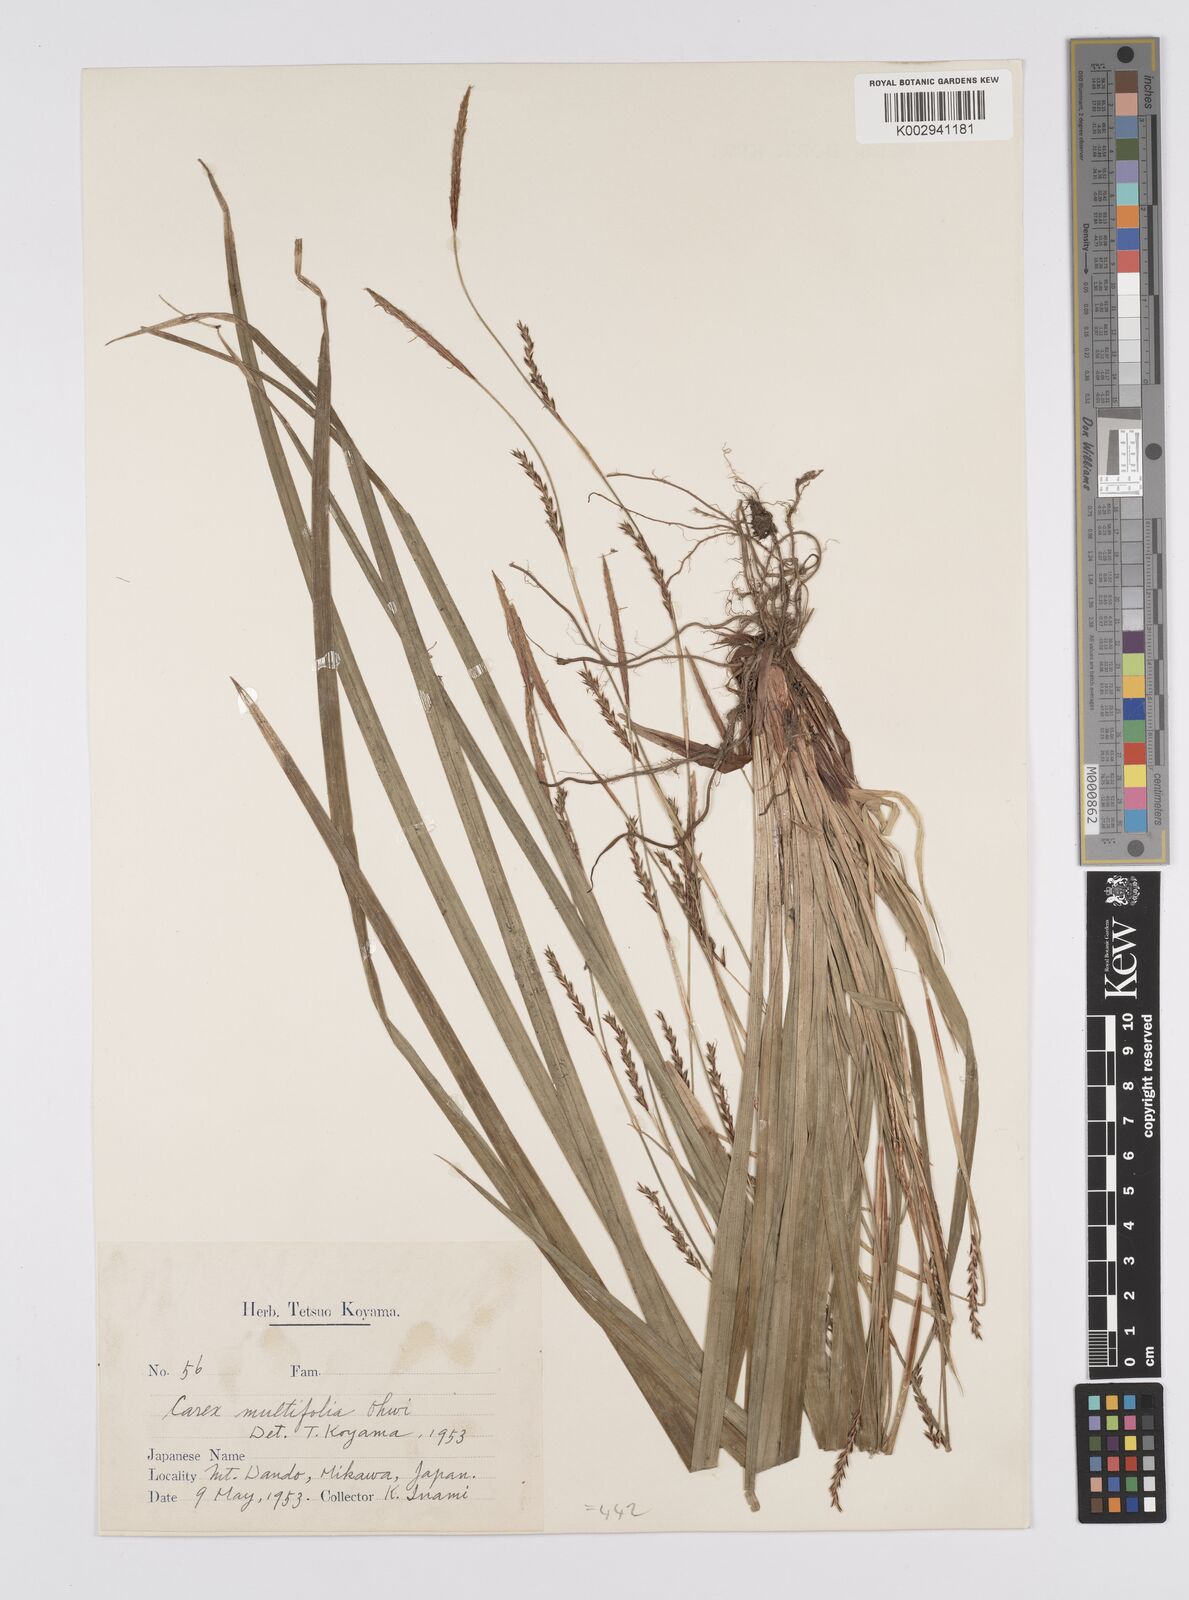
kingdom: Plantae
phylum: Tracheophyta
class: Liliopsida
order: Poales
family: Cyperaceae
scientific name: Cyperaceae
